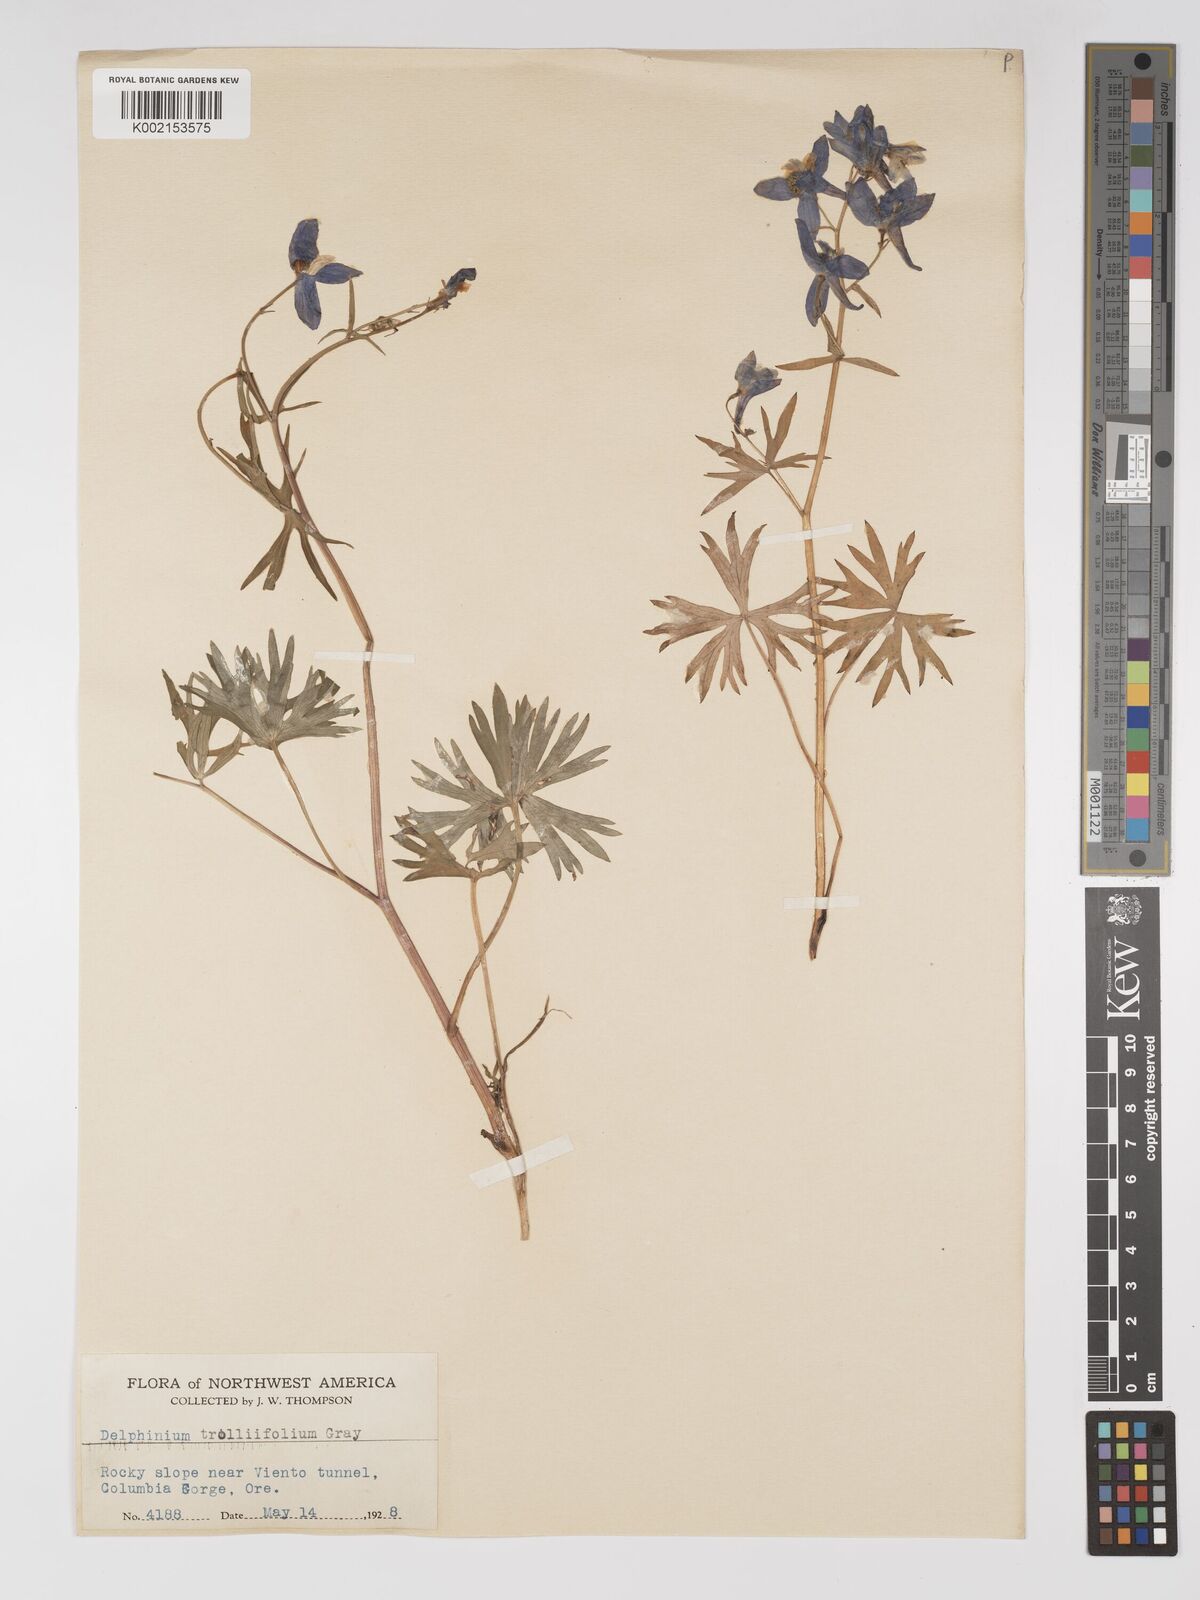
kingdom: Plantae
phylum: Tracheophyta
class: Magnoliopsida
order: Ranunculales
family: Ranunculaceae
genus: Delphinium
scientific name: Delphinium trolliifolium
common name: Cow-poison
